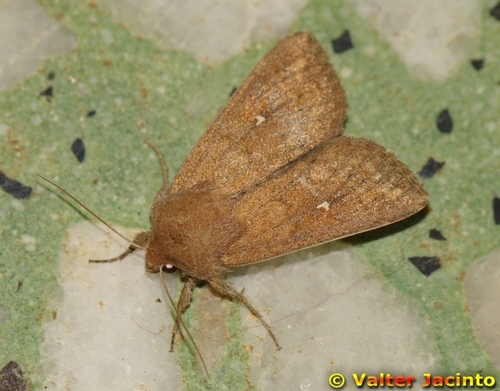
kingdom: Animalia
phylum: Arthropoda
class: Insecta
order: Lepidoptera
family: Noctuidae
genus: Mythimna
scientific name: Mythimna albipuncta
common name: White-point
